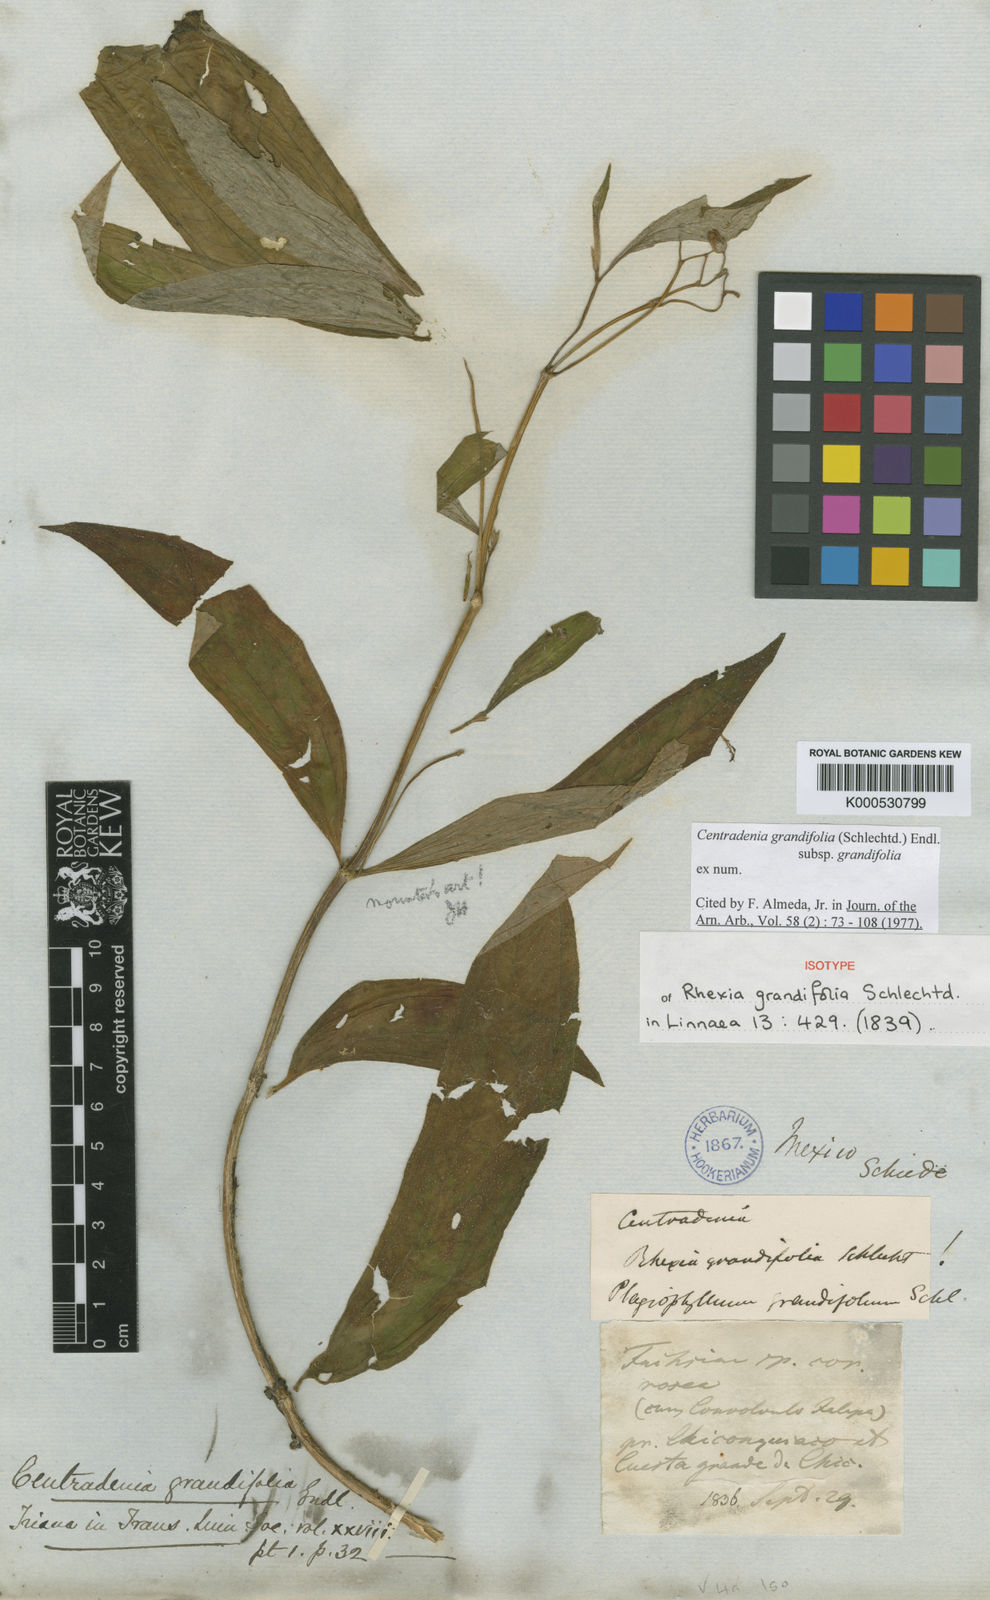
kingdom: Plantae
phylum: Tracheophyta
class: Magnoliopsida
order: Myrtales
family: Melastomataceae
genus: Centradenia
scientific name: Centradenia grandifolia
